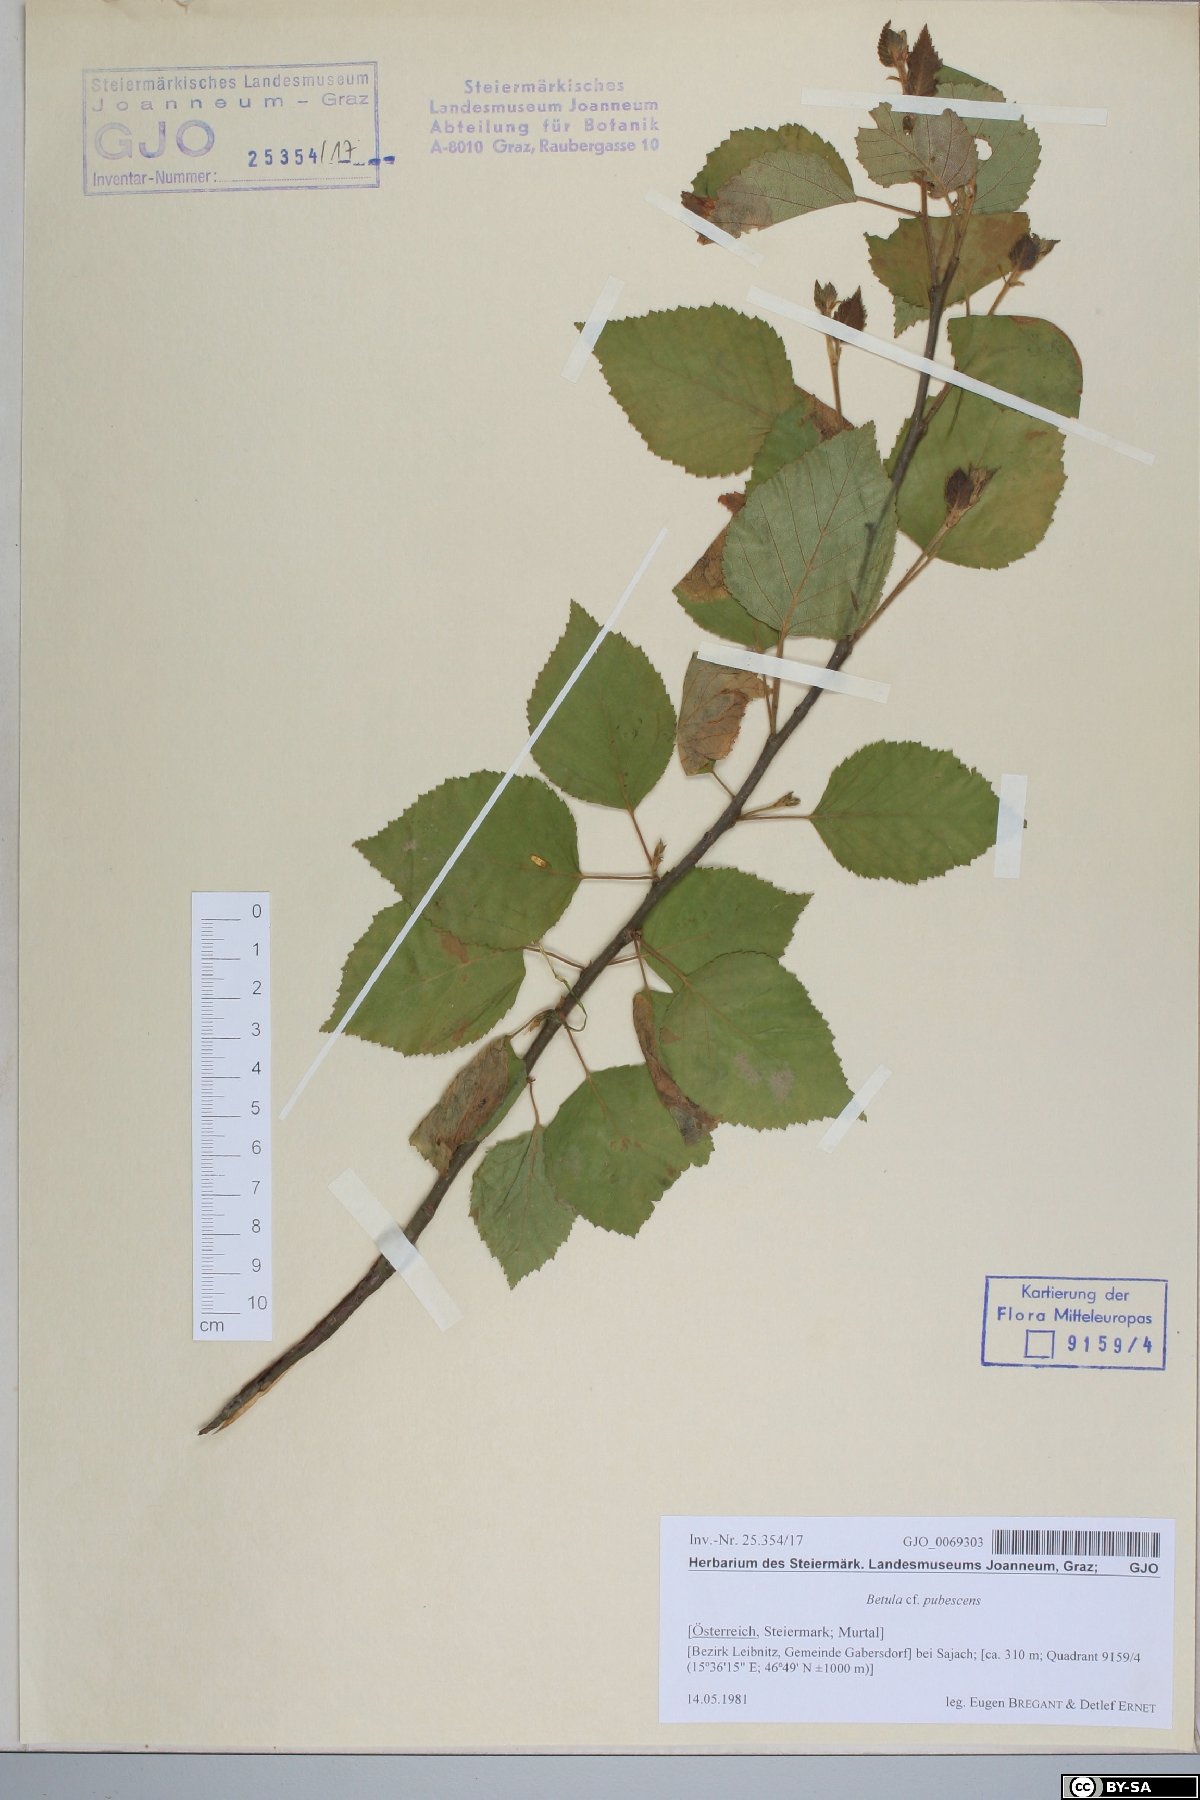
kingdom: Plantae
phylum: Tracheophyta
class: Magnoliopsida
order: Fagales
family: Betulaceae
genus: Betula
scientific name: Betula pubescens
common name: Downy birch
